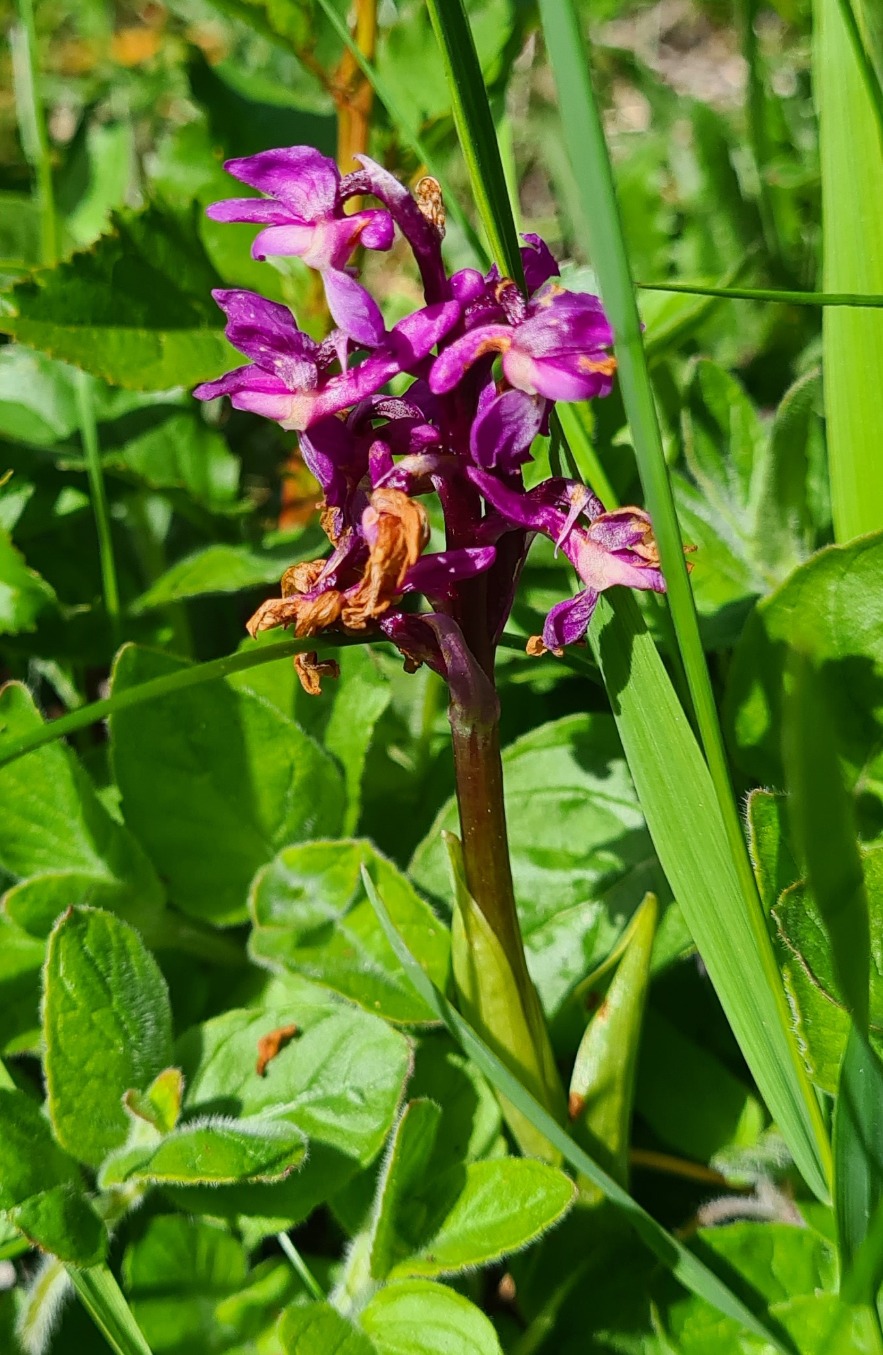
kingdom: Plantae
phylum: Tracheophyta
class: Liliopsida
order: Asparagales
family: Orchidaceae
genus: Orchis
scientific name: Orchis mascula
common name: Tyndakset gøgeurt
